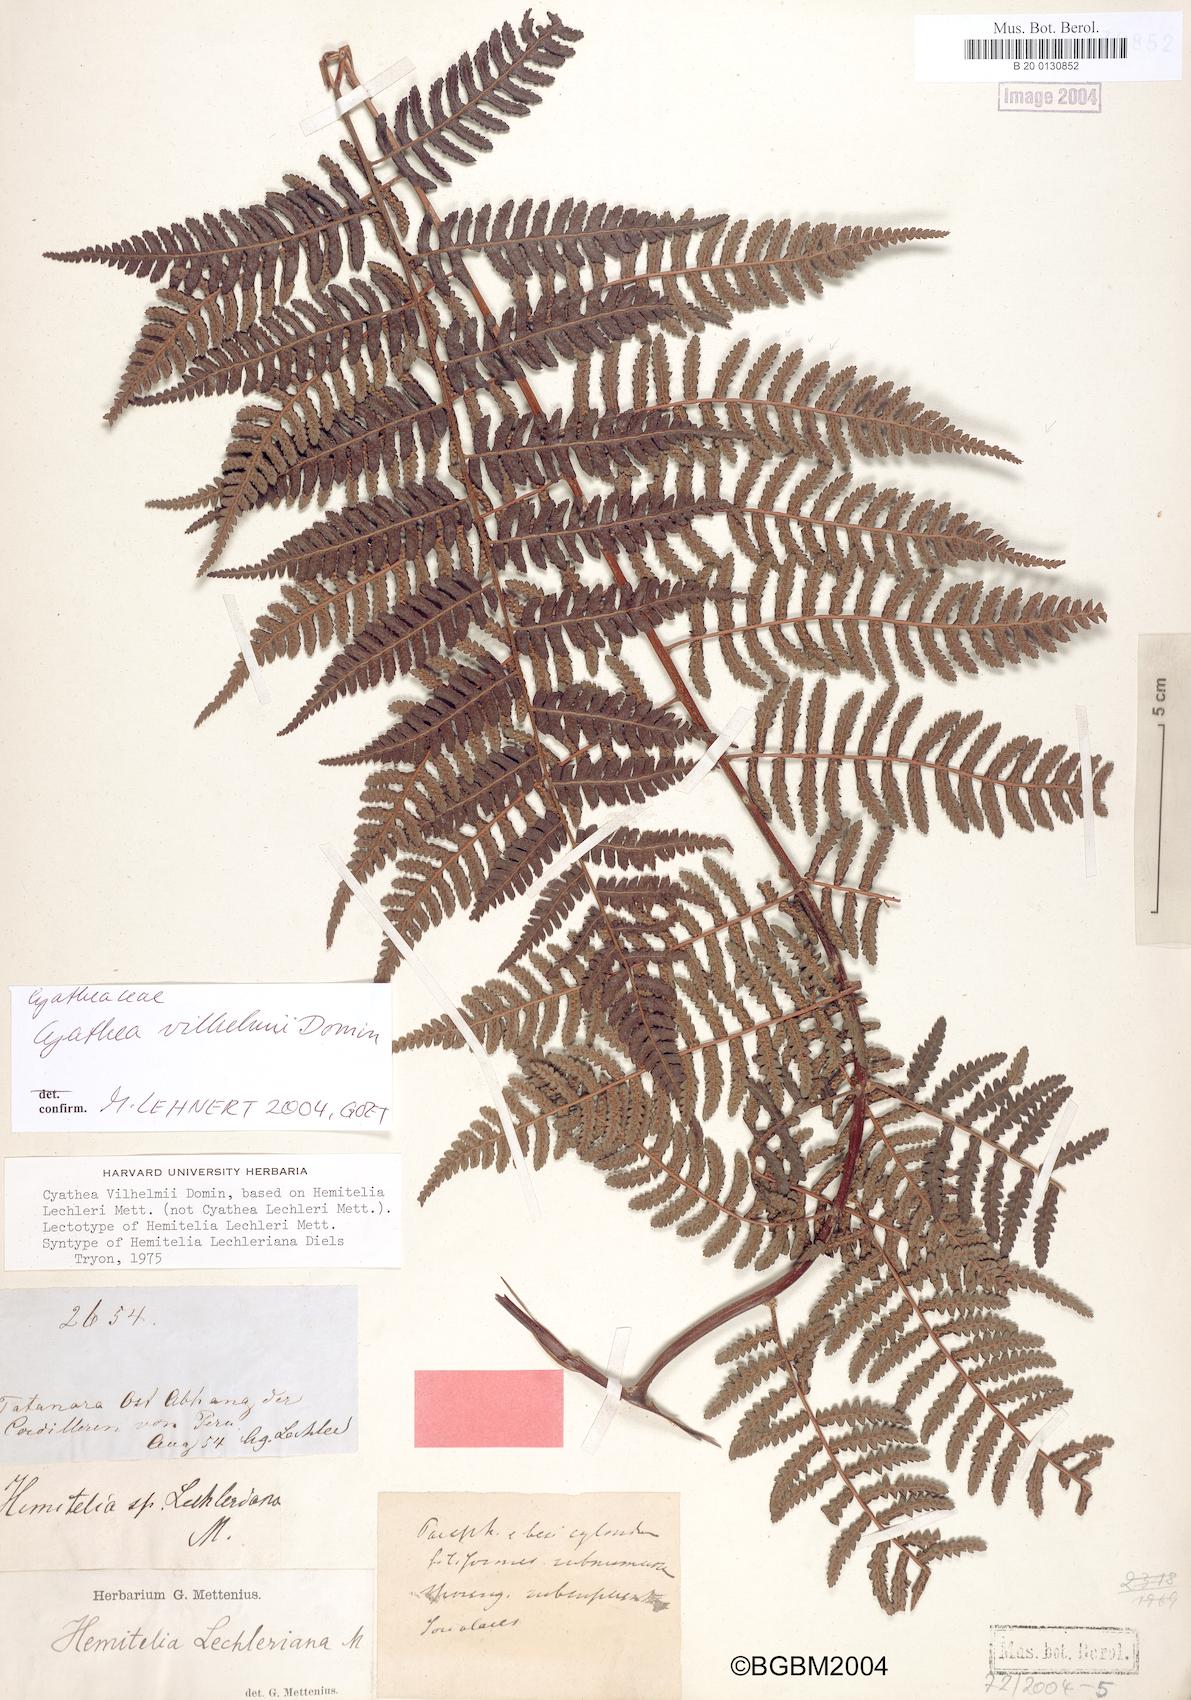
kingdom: Plantae
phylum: Tracheophyta
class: Polypodiopsida
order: Cyatheales
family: Cyatheaceae
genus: Cyathea
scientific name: Cyathea vilhelmii
